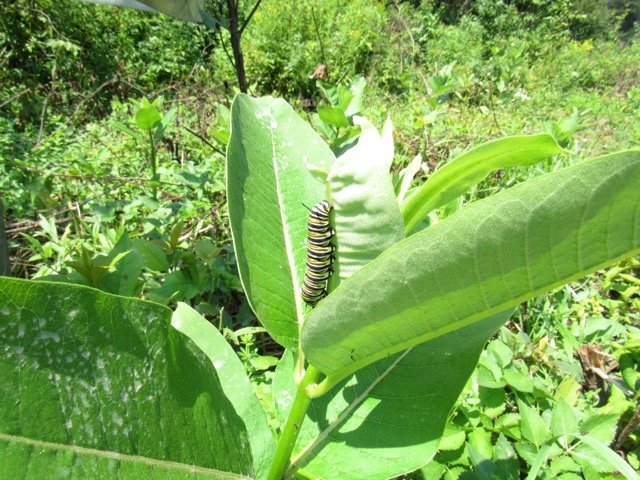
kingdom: Animalia
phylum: Arthropoda
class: Insecta
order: Lepidoptera
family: Nymphalidae
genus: Danaus
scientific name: Danaus plexippus
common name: Monarch
